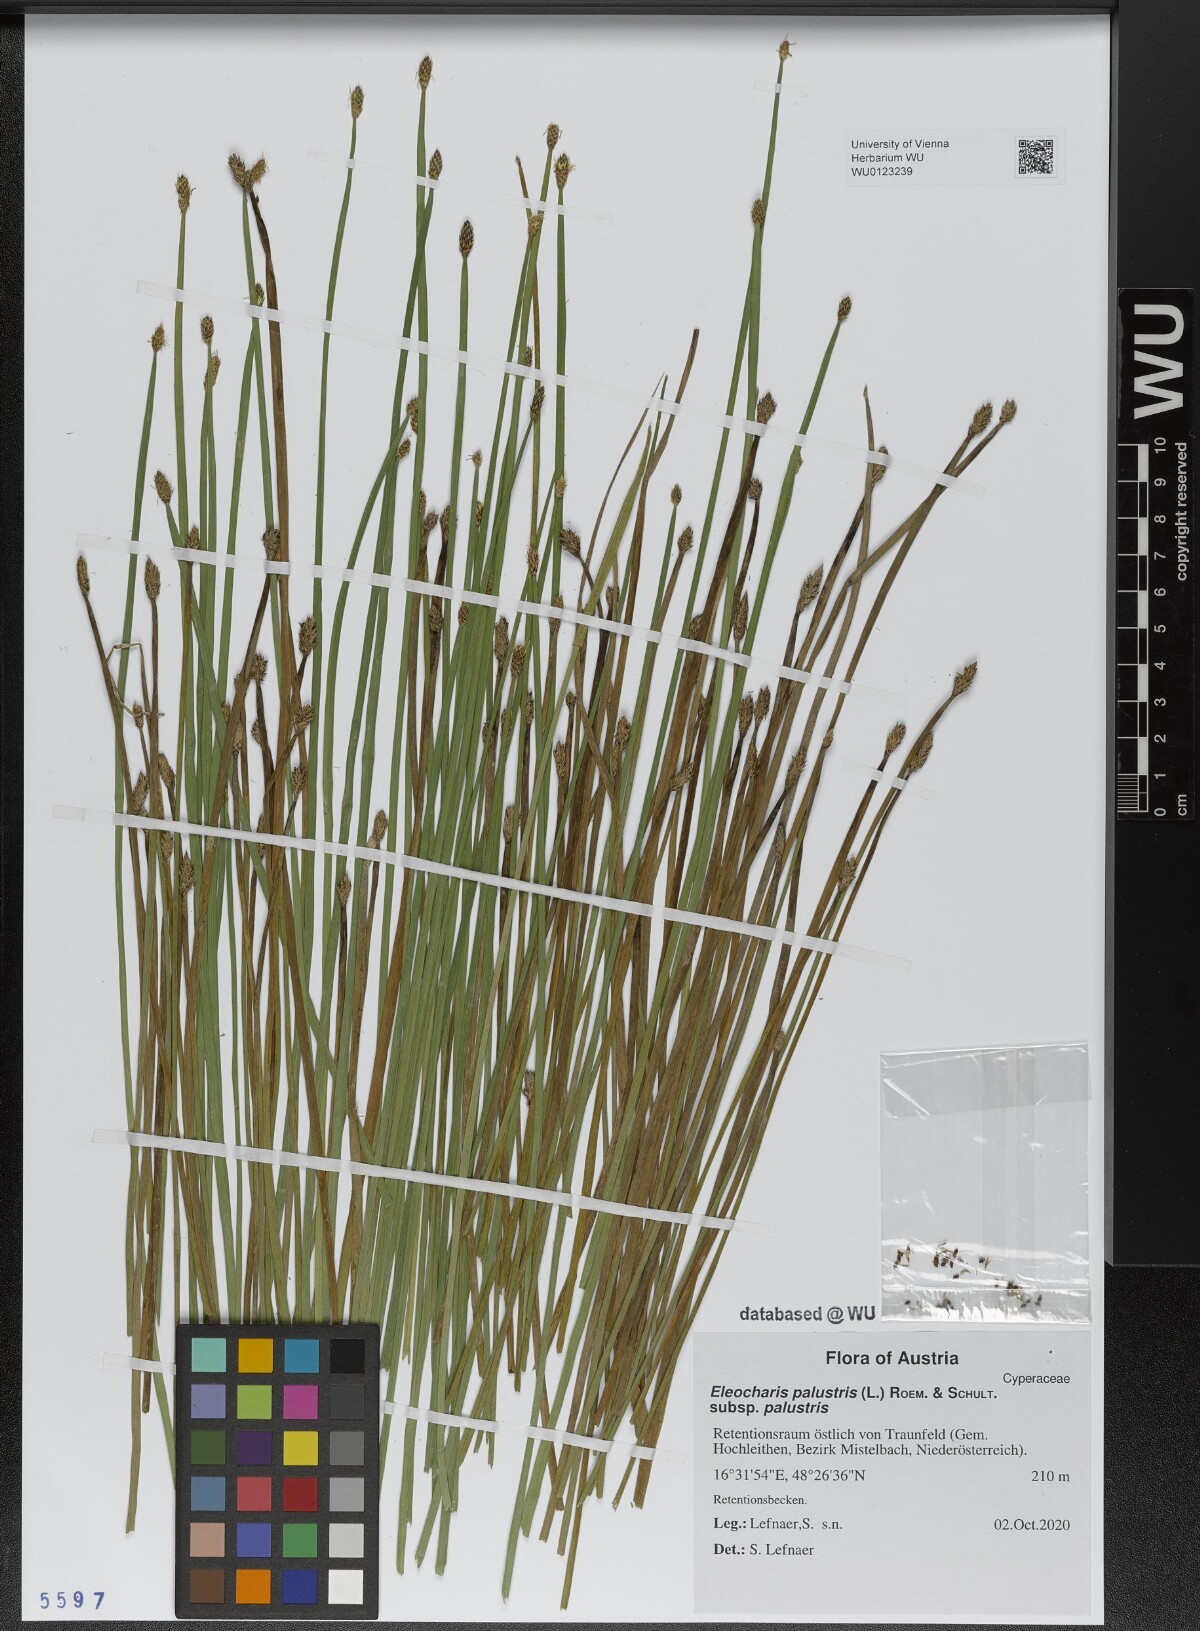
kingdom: Plantae
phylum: Tracheophyta
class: Liliopsida
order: Poales
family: Cyperaceae
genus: Eleocharis
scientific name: Eleocharis palustris
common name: Common spike-rush
